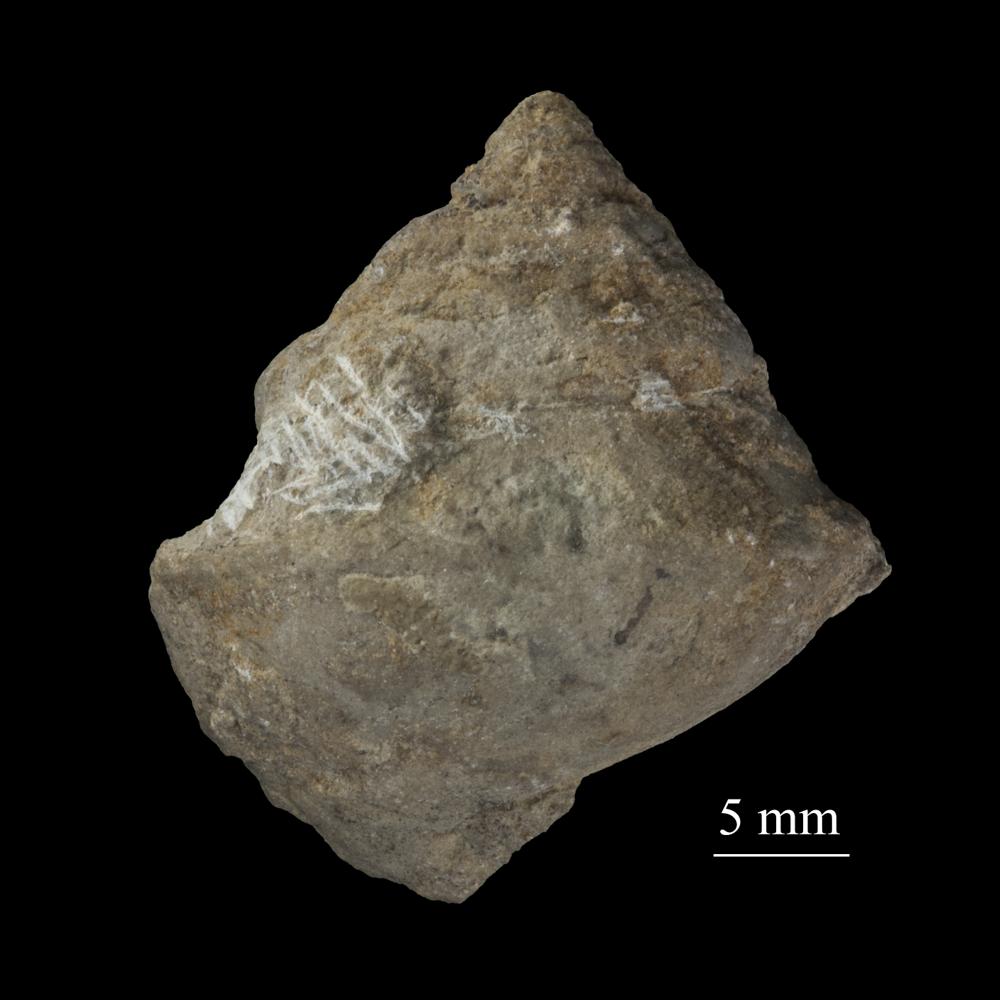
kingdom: Animalia
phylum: Mollusca
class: Gastropoda
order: Neogastropoda
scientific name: Neogastropoda
